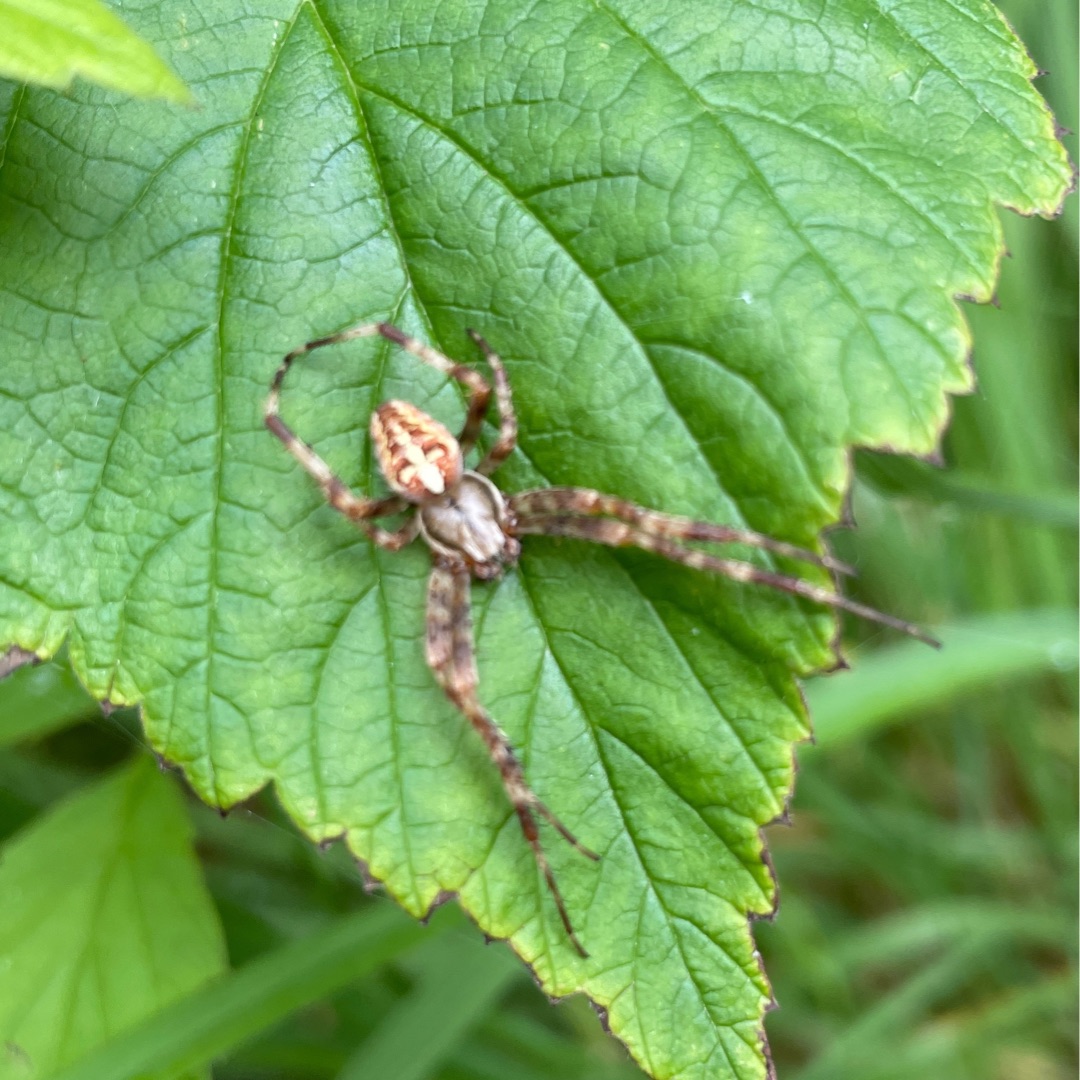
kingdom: Animalia
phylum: Arthropoda
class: Arachnida
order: Araneae
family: Araneidae
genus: Araneus
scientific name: Araneus diadematus
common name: Korsedderkop
